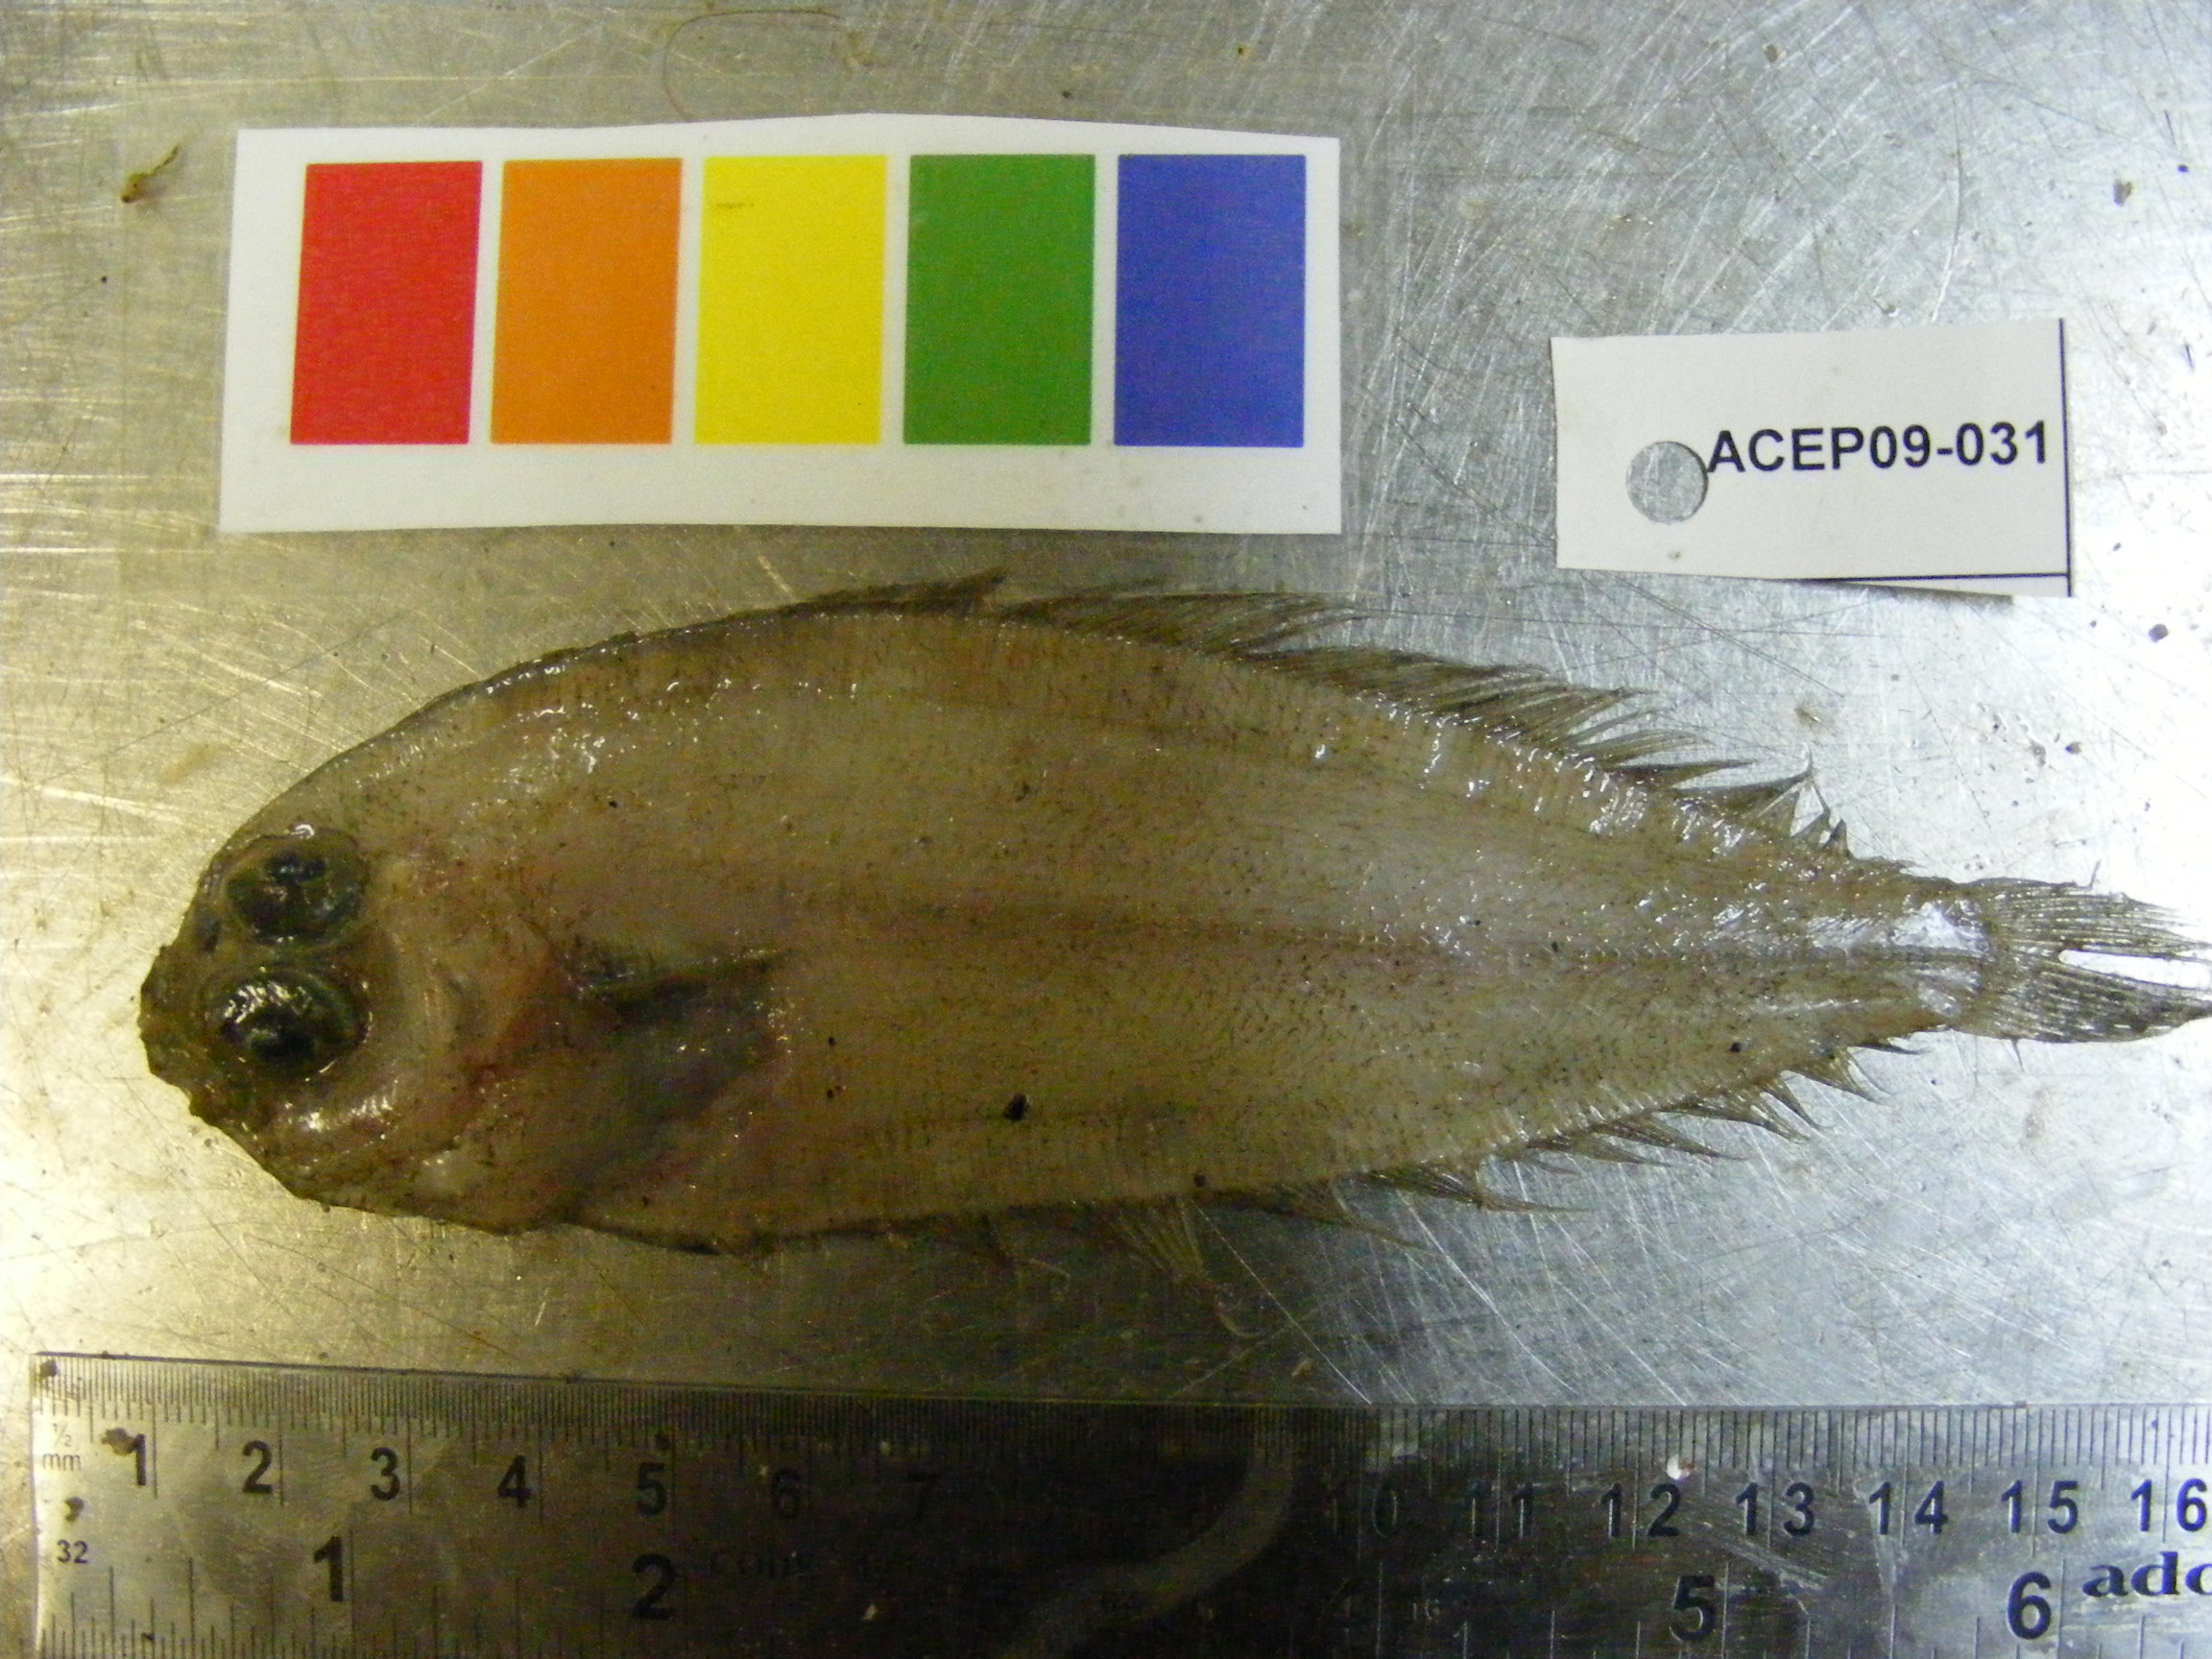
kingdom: Animalia
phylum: Chordata
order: Pleuronectiformes
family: Bothidae
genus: Arnoglossus
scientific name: Arnoglossus
